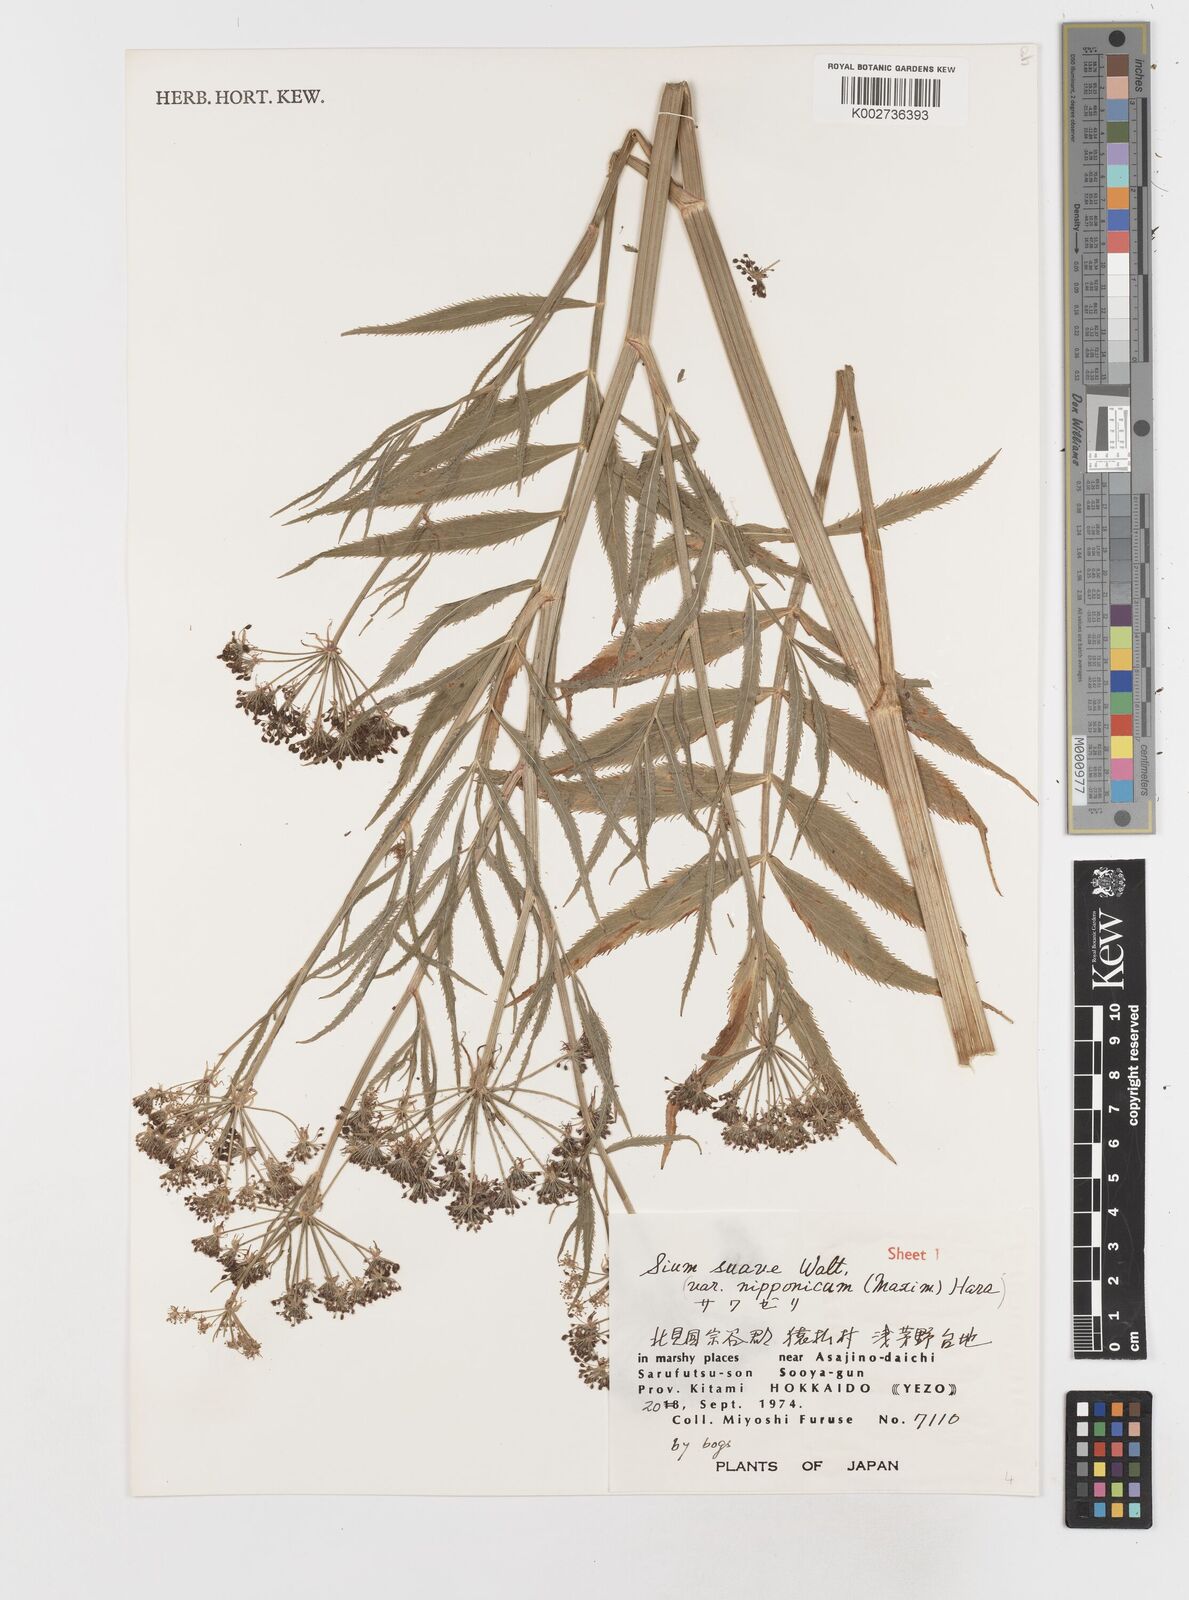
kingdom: Plantae
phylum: Tracheophyta
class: Magnoliopsida
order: Apiales
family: Apiaceae
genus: Sium
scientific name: Sium suave
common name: Hemlock water-parsnip
